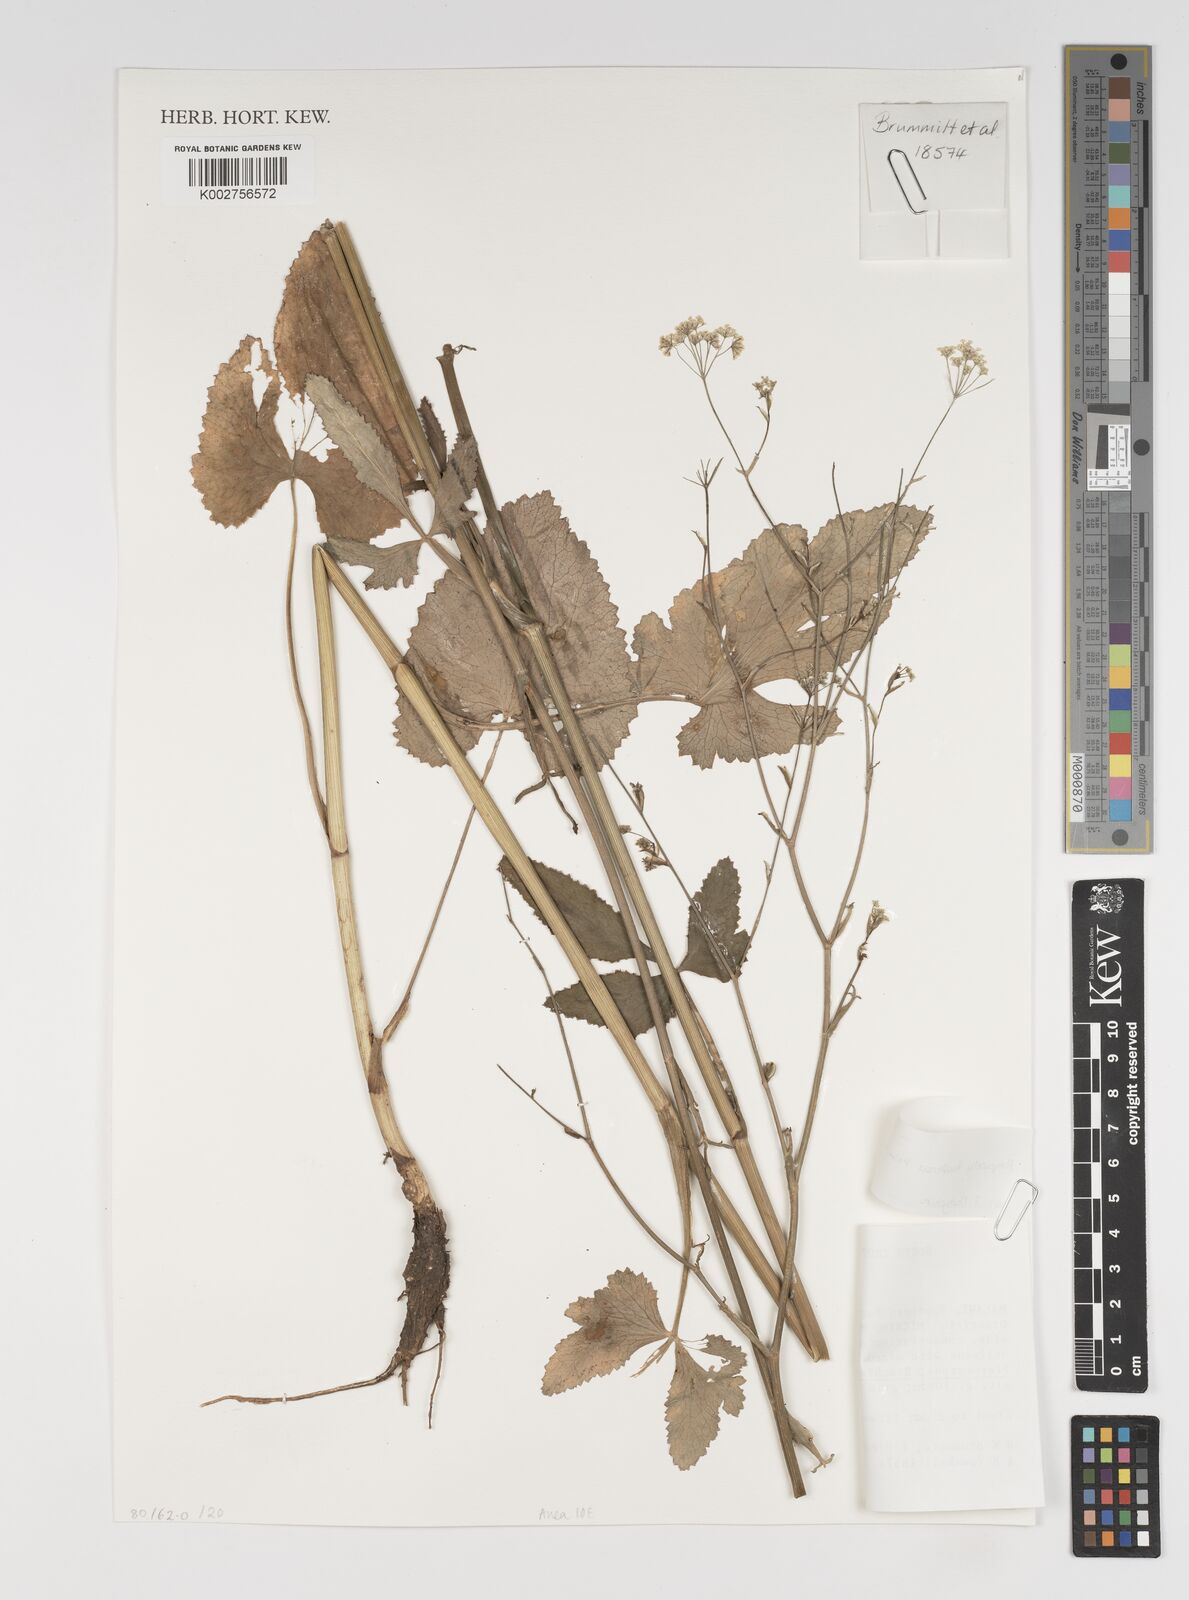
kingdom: Plantae
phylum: Tracheophyta
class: Magnoliopsida
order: Apiales
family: Apiaceae
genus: Pimpinella
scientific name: Pimpinella huillensis
